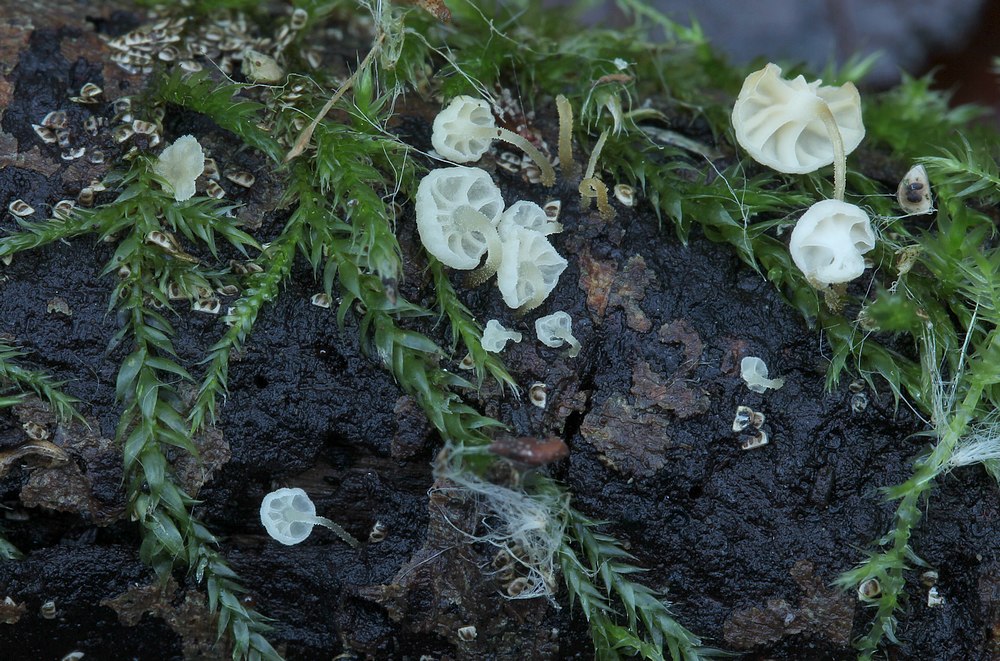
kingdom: Fungi
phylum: Basidiomycota
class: Agaricomycetes
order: Agaricales
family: Porotheleaceae
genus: Phloeomana
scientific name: Phloeomana speirea
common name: kvist-huesvamp
